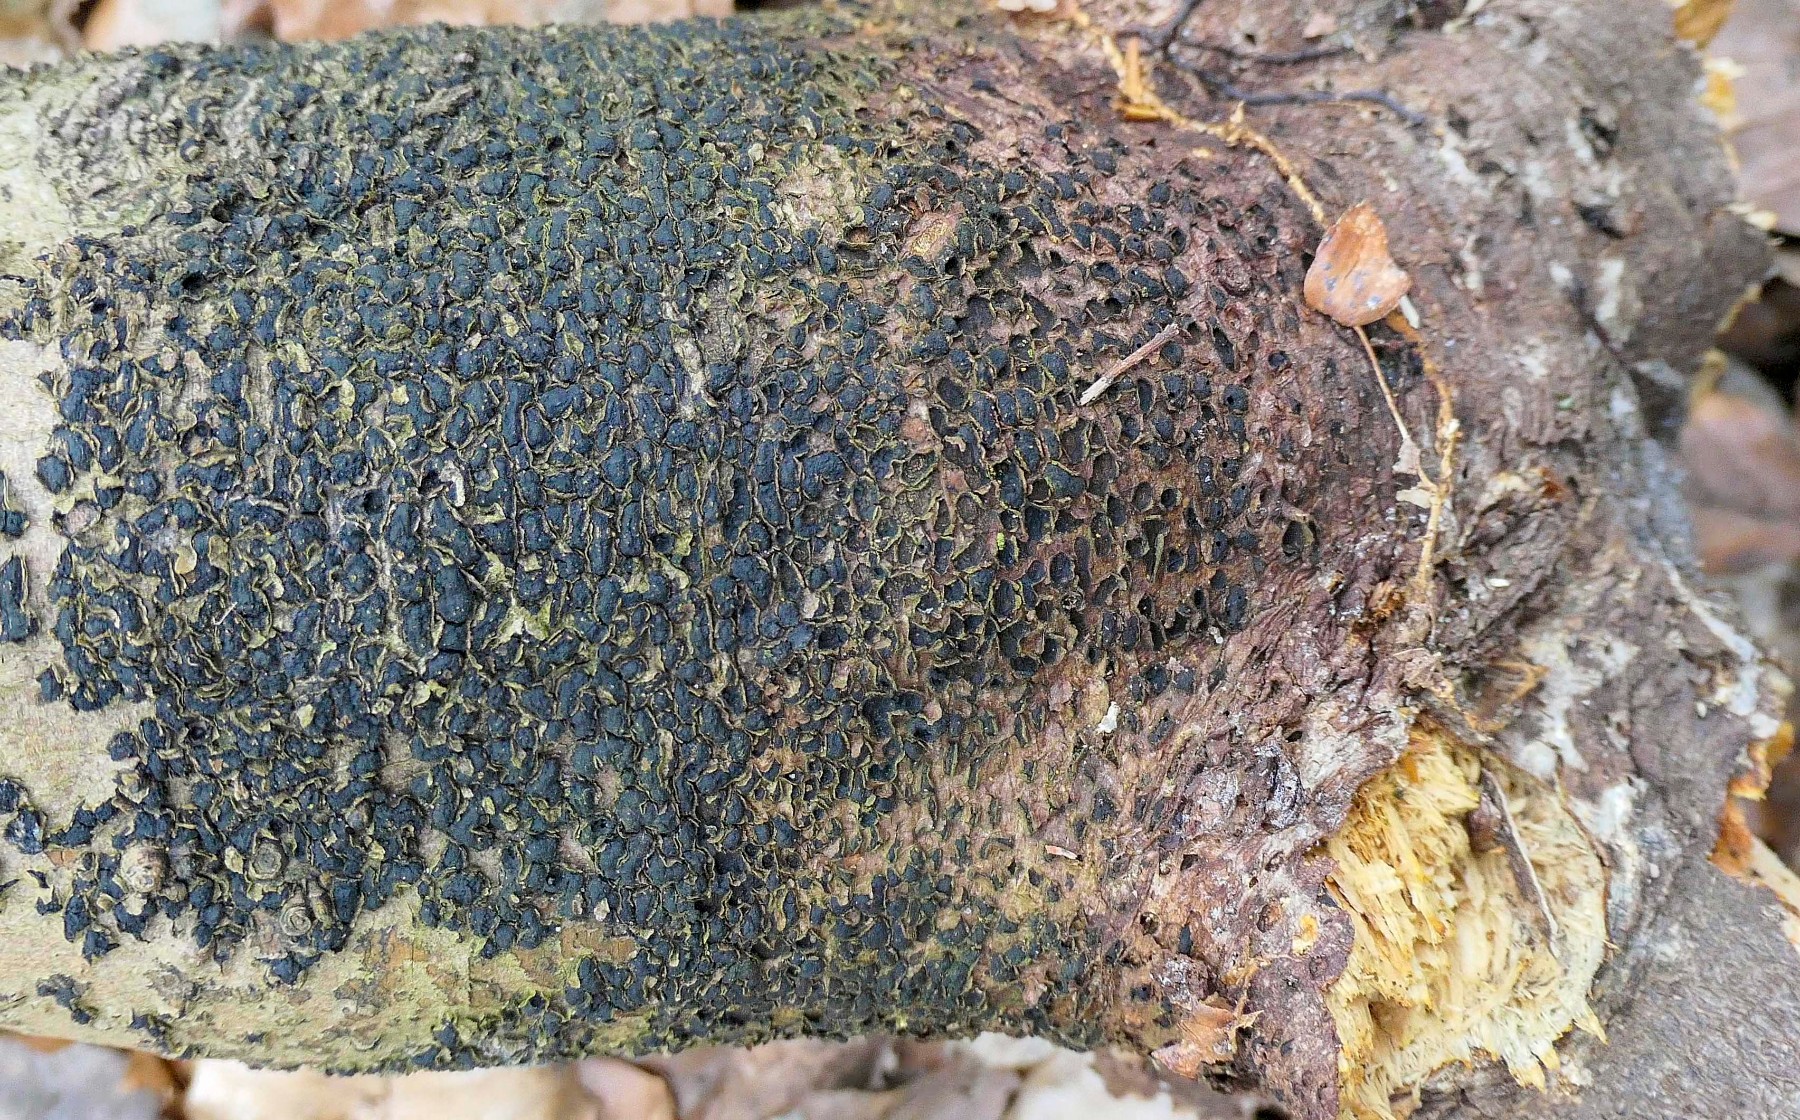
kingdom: Fungi
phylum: Ascomycota
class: Sordariomycetes
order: Xylariales
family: Melogrammataceae
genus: Melogramma
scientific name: Melogramma spiniferum
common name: bøgefod-kulhals
